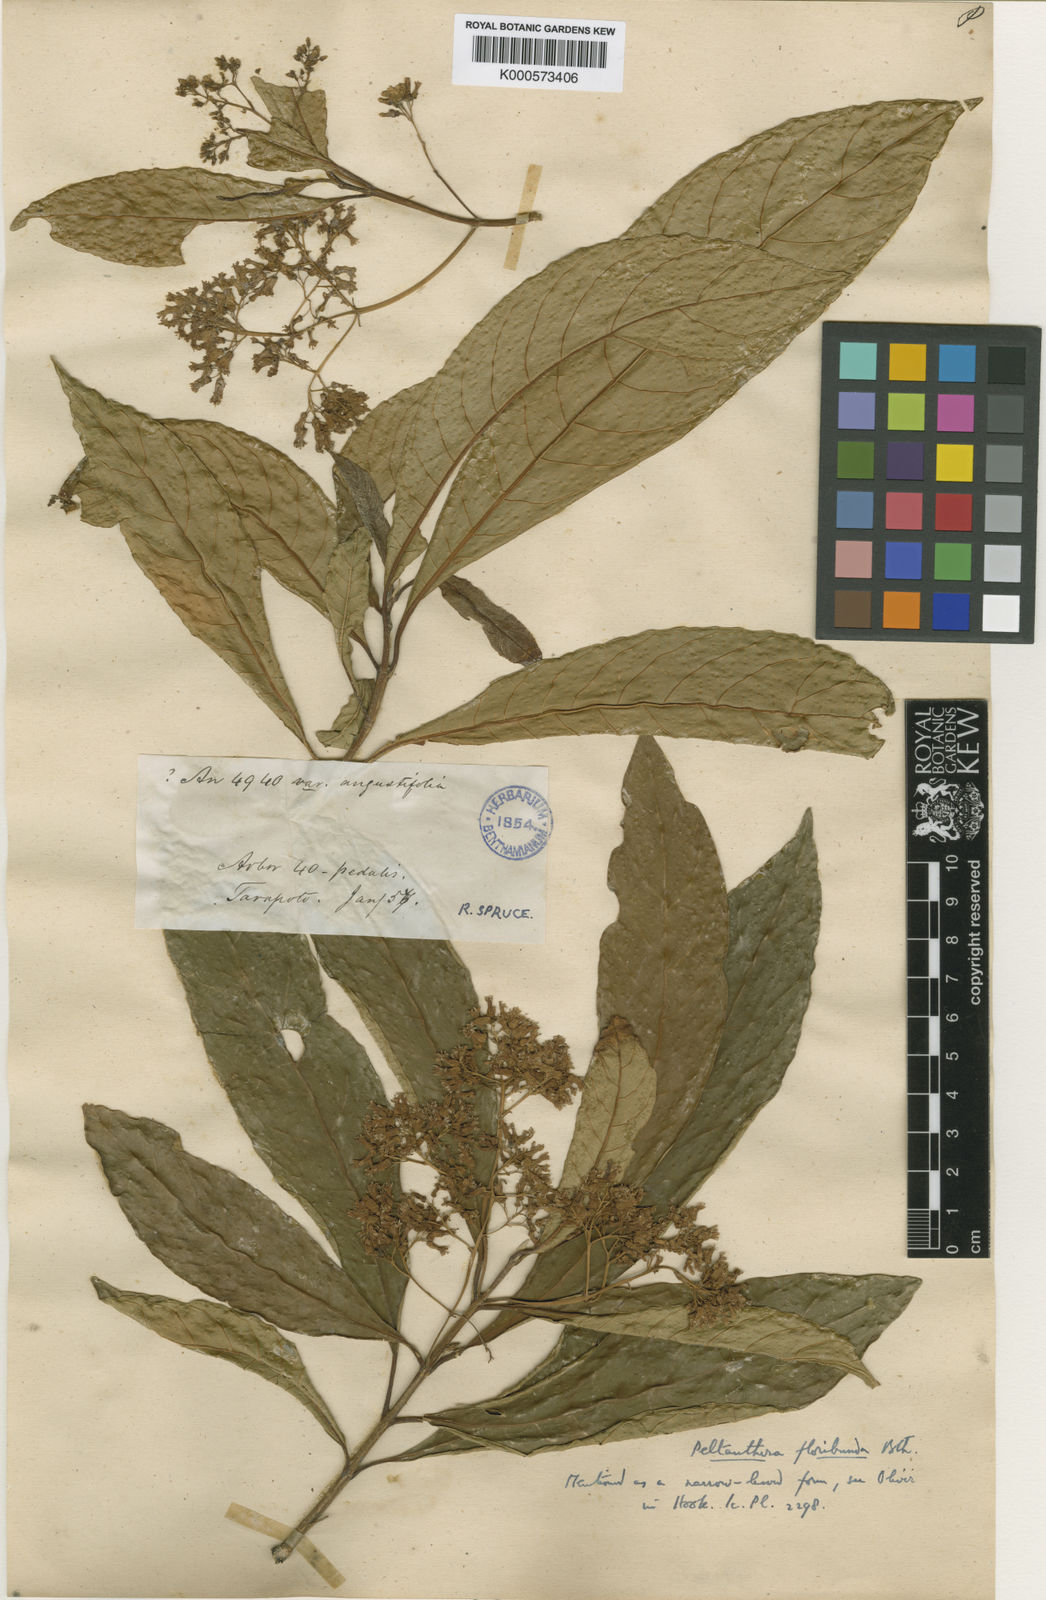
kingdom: Plantae
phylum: Tracheophyta
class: Magnoliopsida
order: Lamiales
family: Peltantheraceae
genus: Peltanthera
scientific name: Peltanthera floribunda
